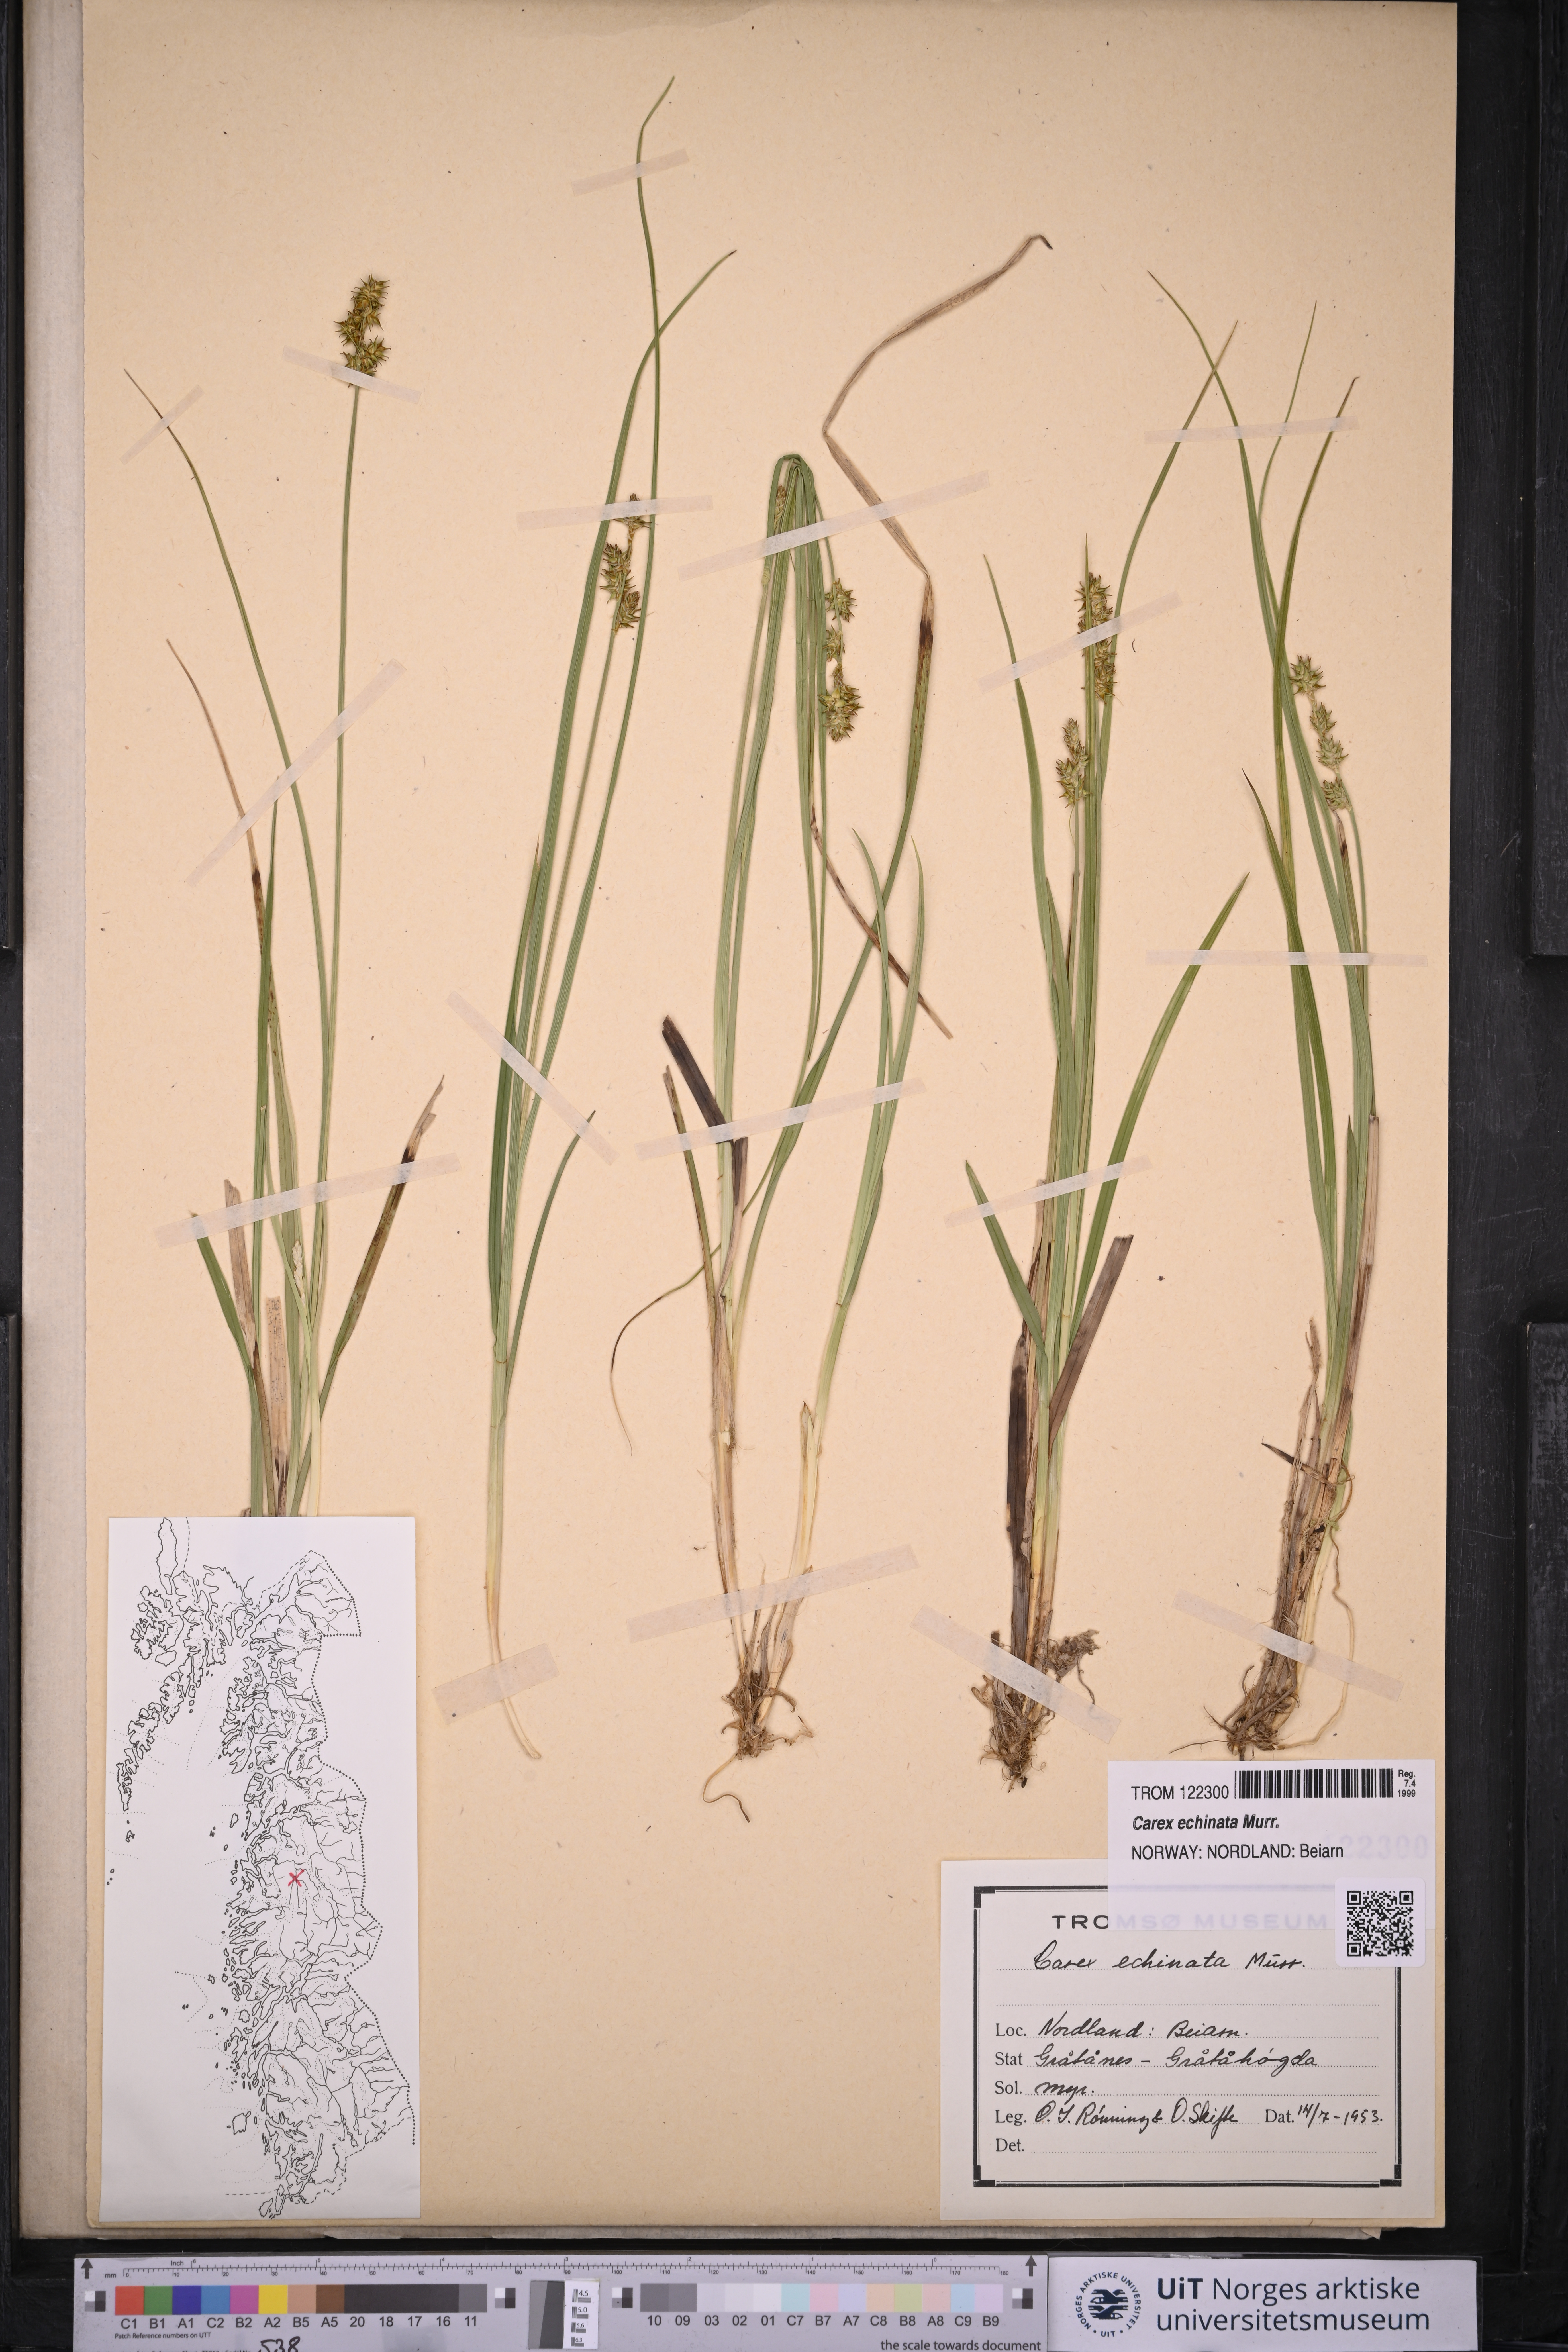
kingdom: Plantae
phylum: Tracheophyta
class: Liliopsida
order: Poales
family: Cyperaceae
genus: Carex
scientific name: Carex echinata
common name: Star sedge
